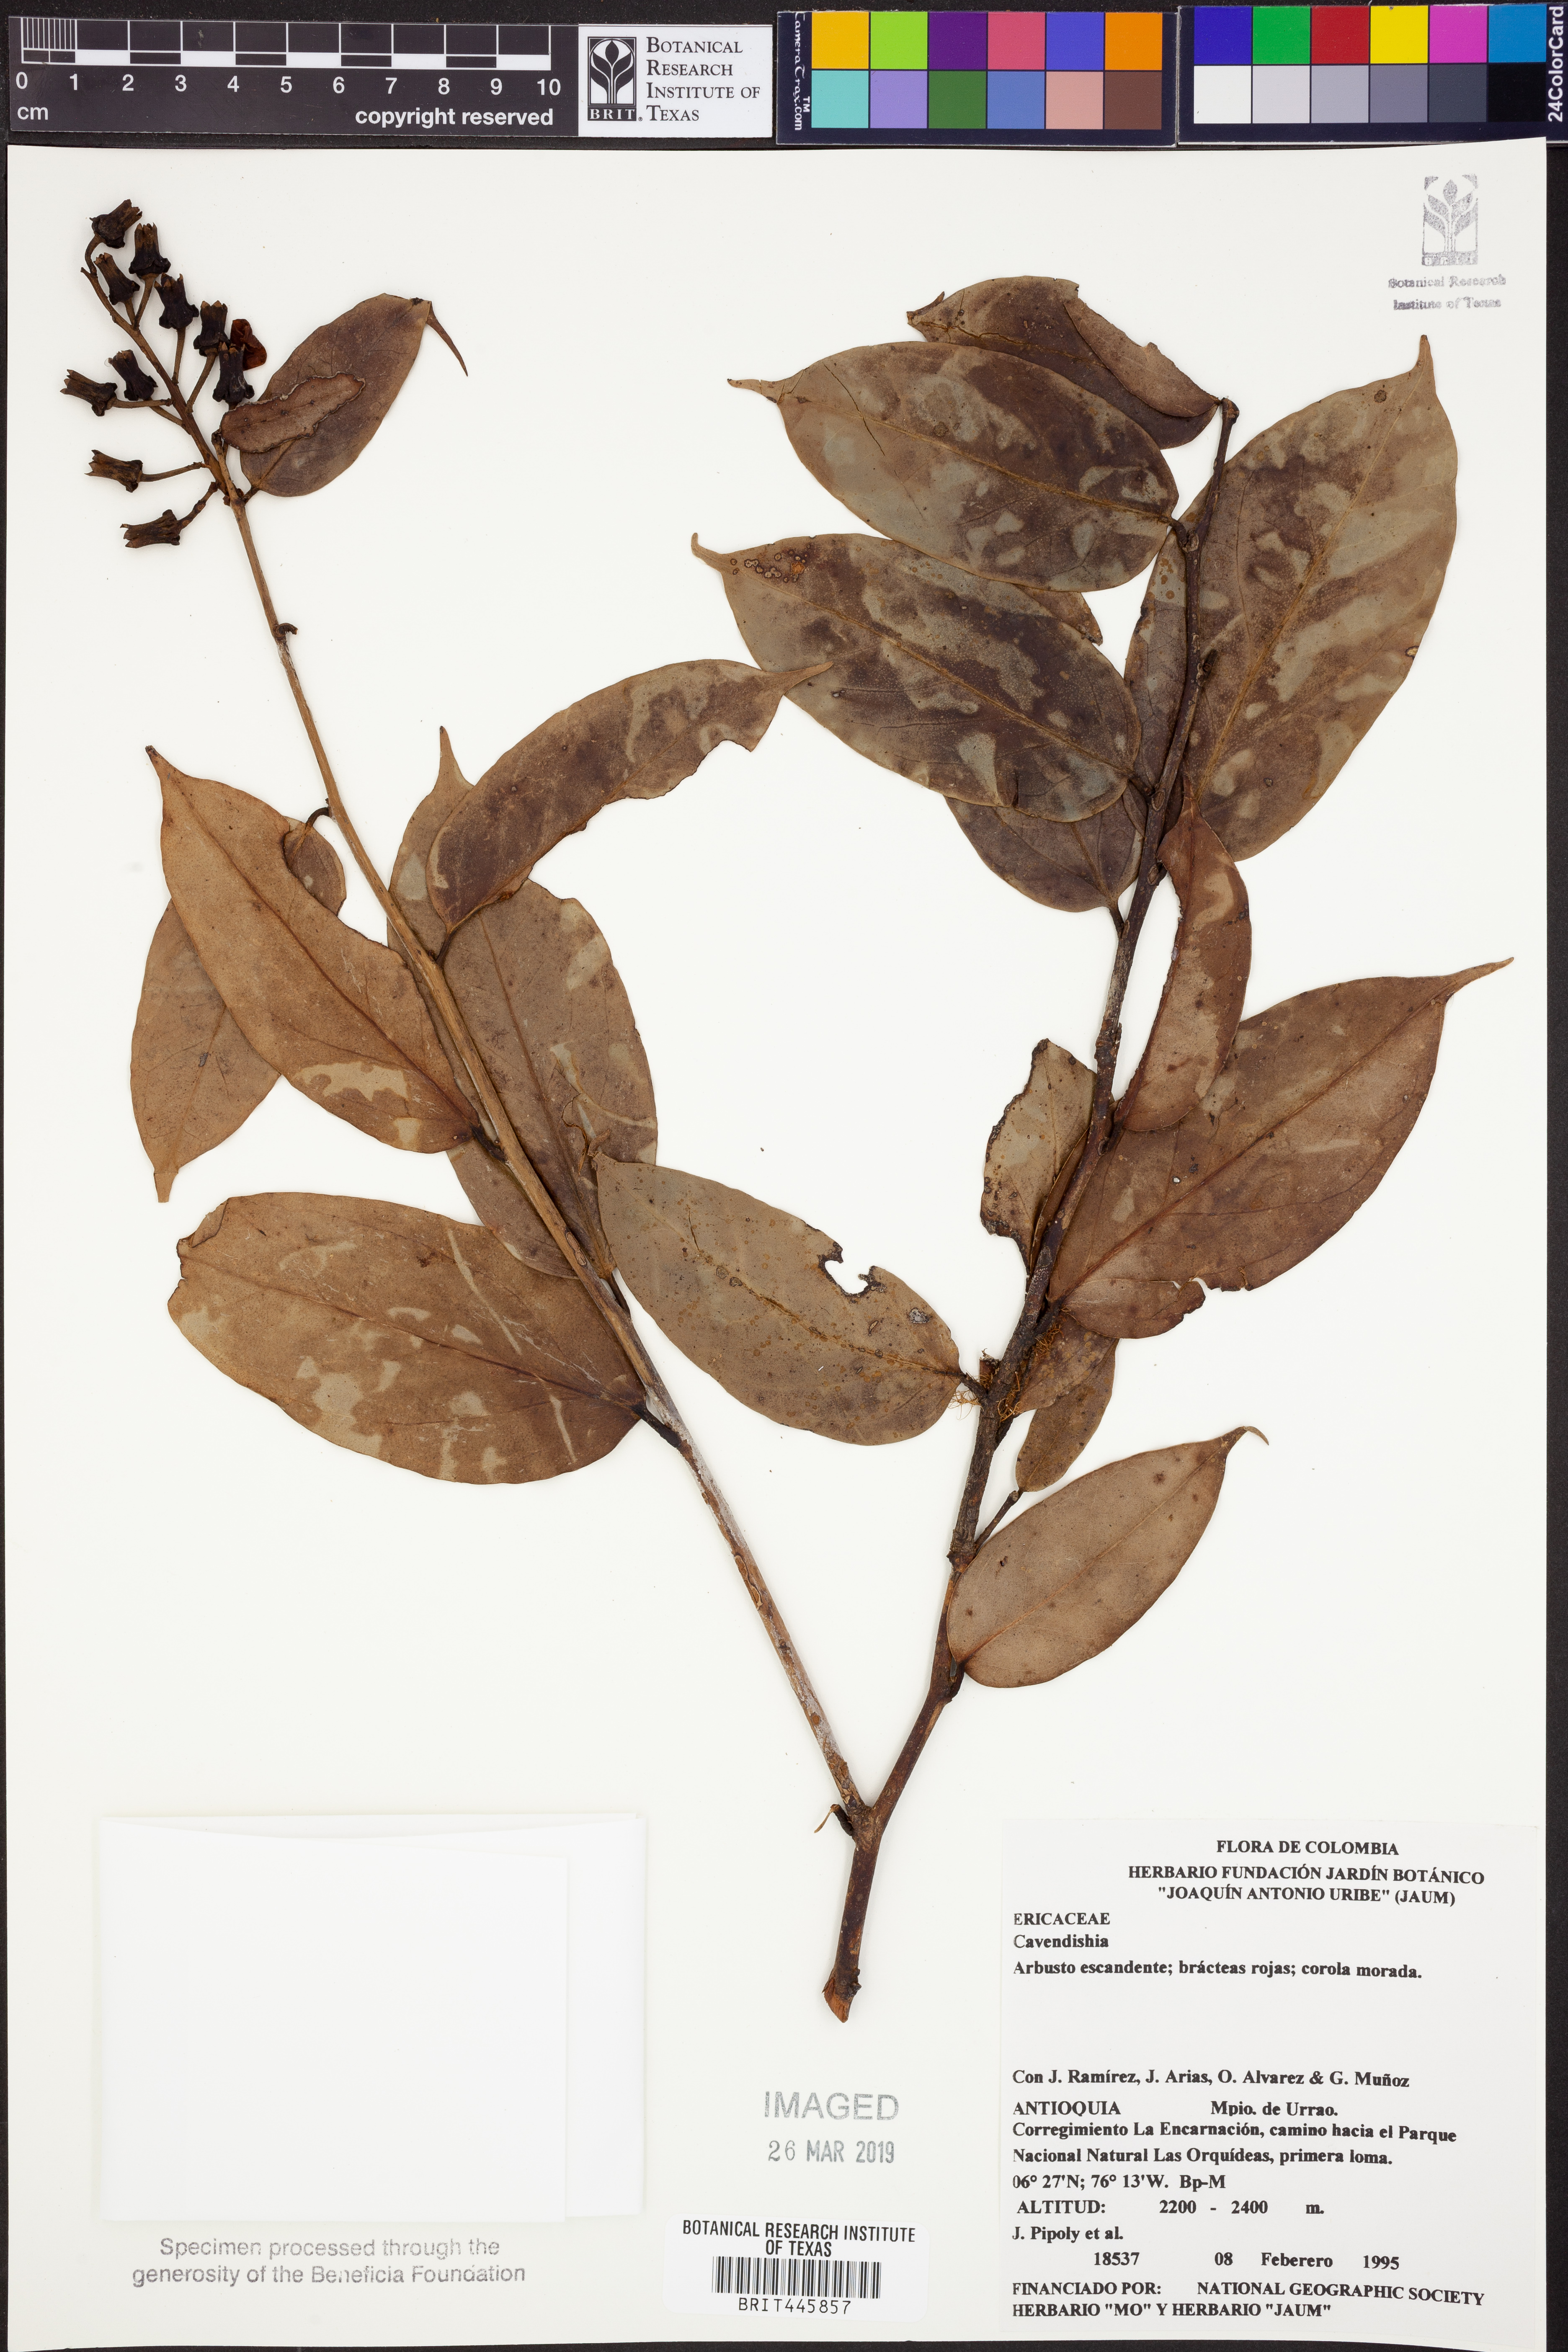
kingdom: Plantae
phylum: Tracheophyta
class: Magnoliopsida
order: Ericales
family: Ericaceae
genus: Cavendishia
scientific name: Cavendishia
